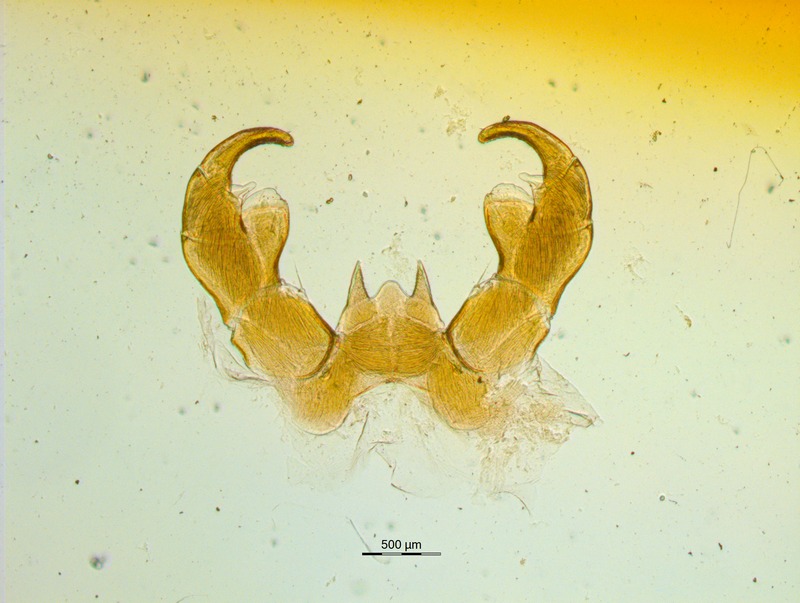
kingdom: Animalia
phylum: Arthropoda
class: Diplopoda
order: Glomerida
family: Glomeridae
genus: Onychoglomeris
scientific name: Onychoglomeris tirolensis
